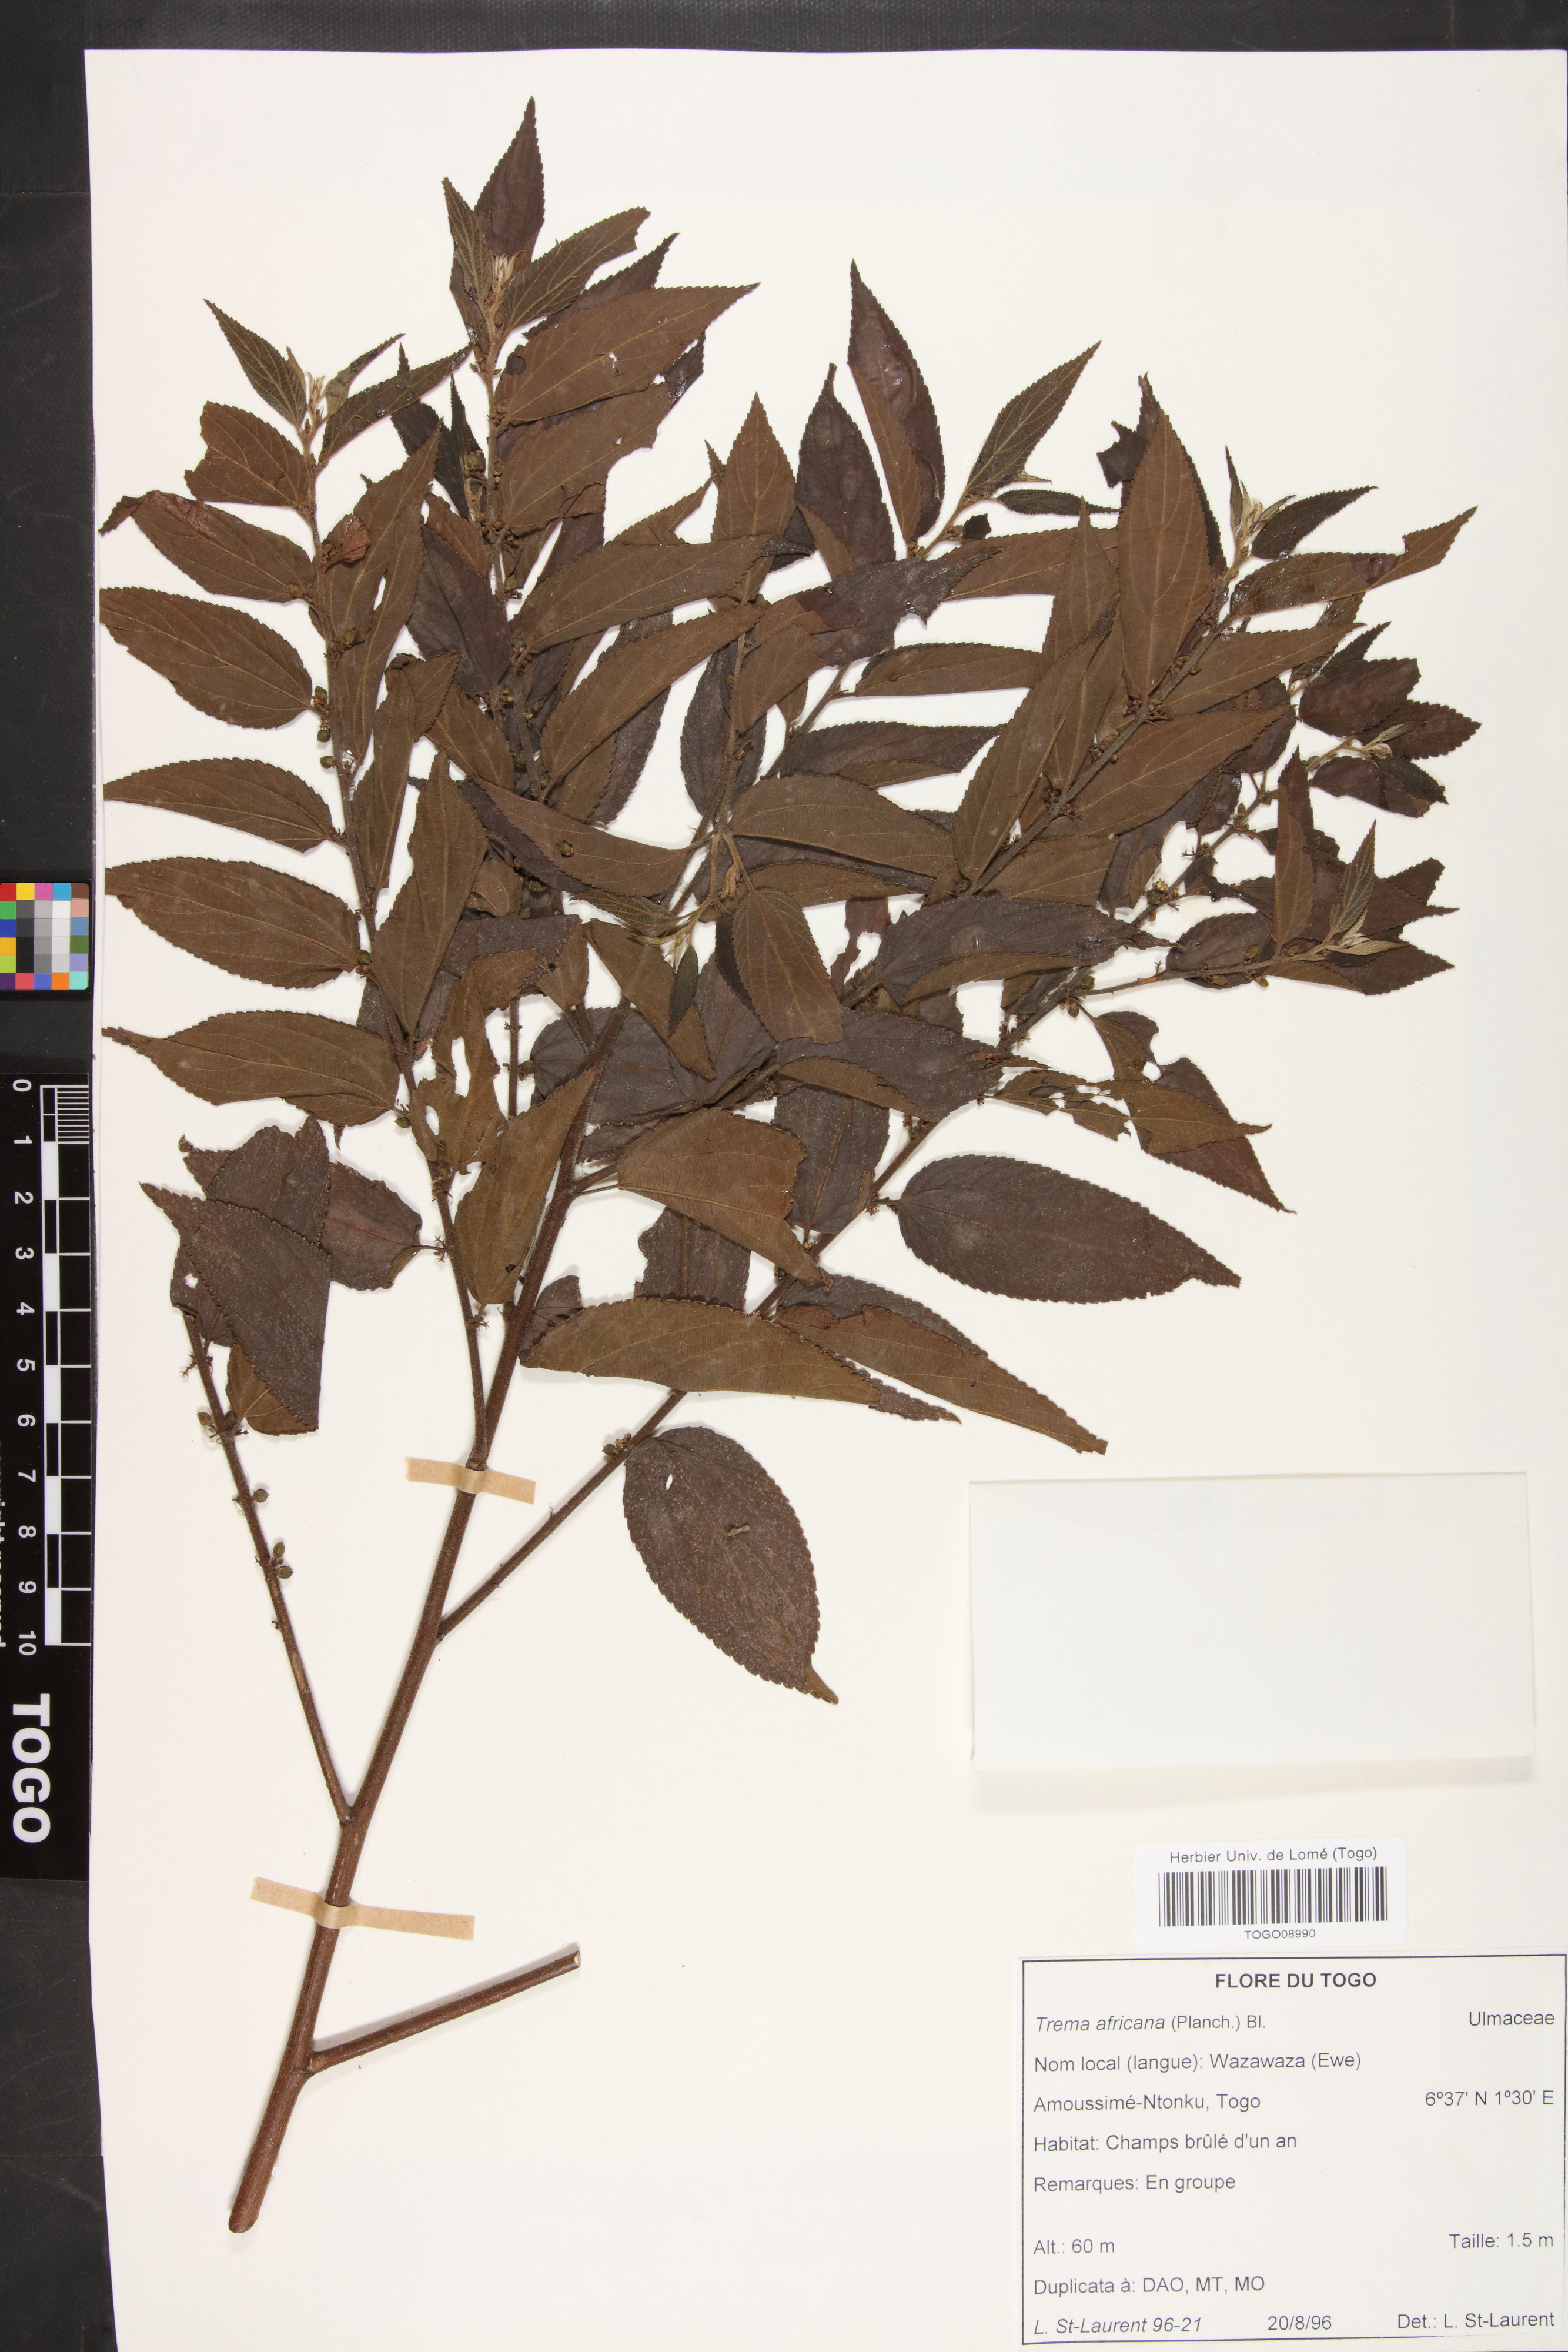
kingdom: Plantae
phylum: Tracheophyta
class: Magnoliopsida
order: Rosales
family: Cannabaceae
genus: Trema
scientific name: Trema orientale
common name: Indian charcoal tree
